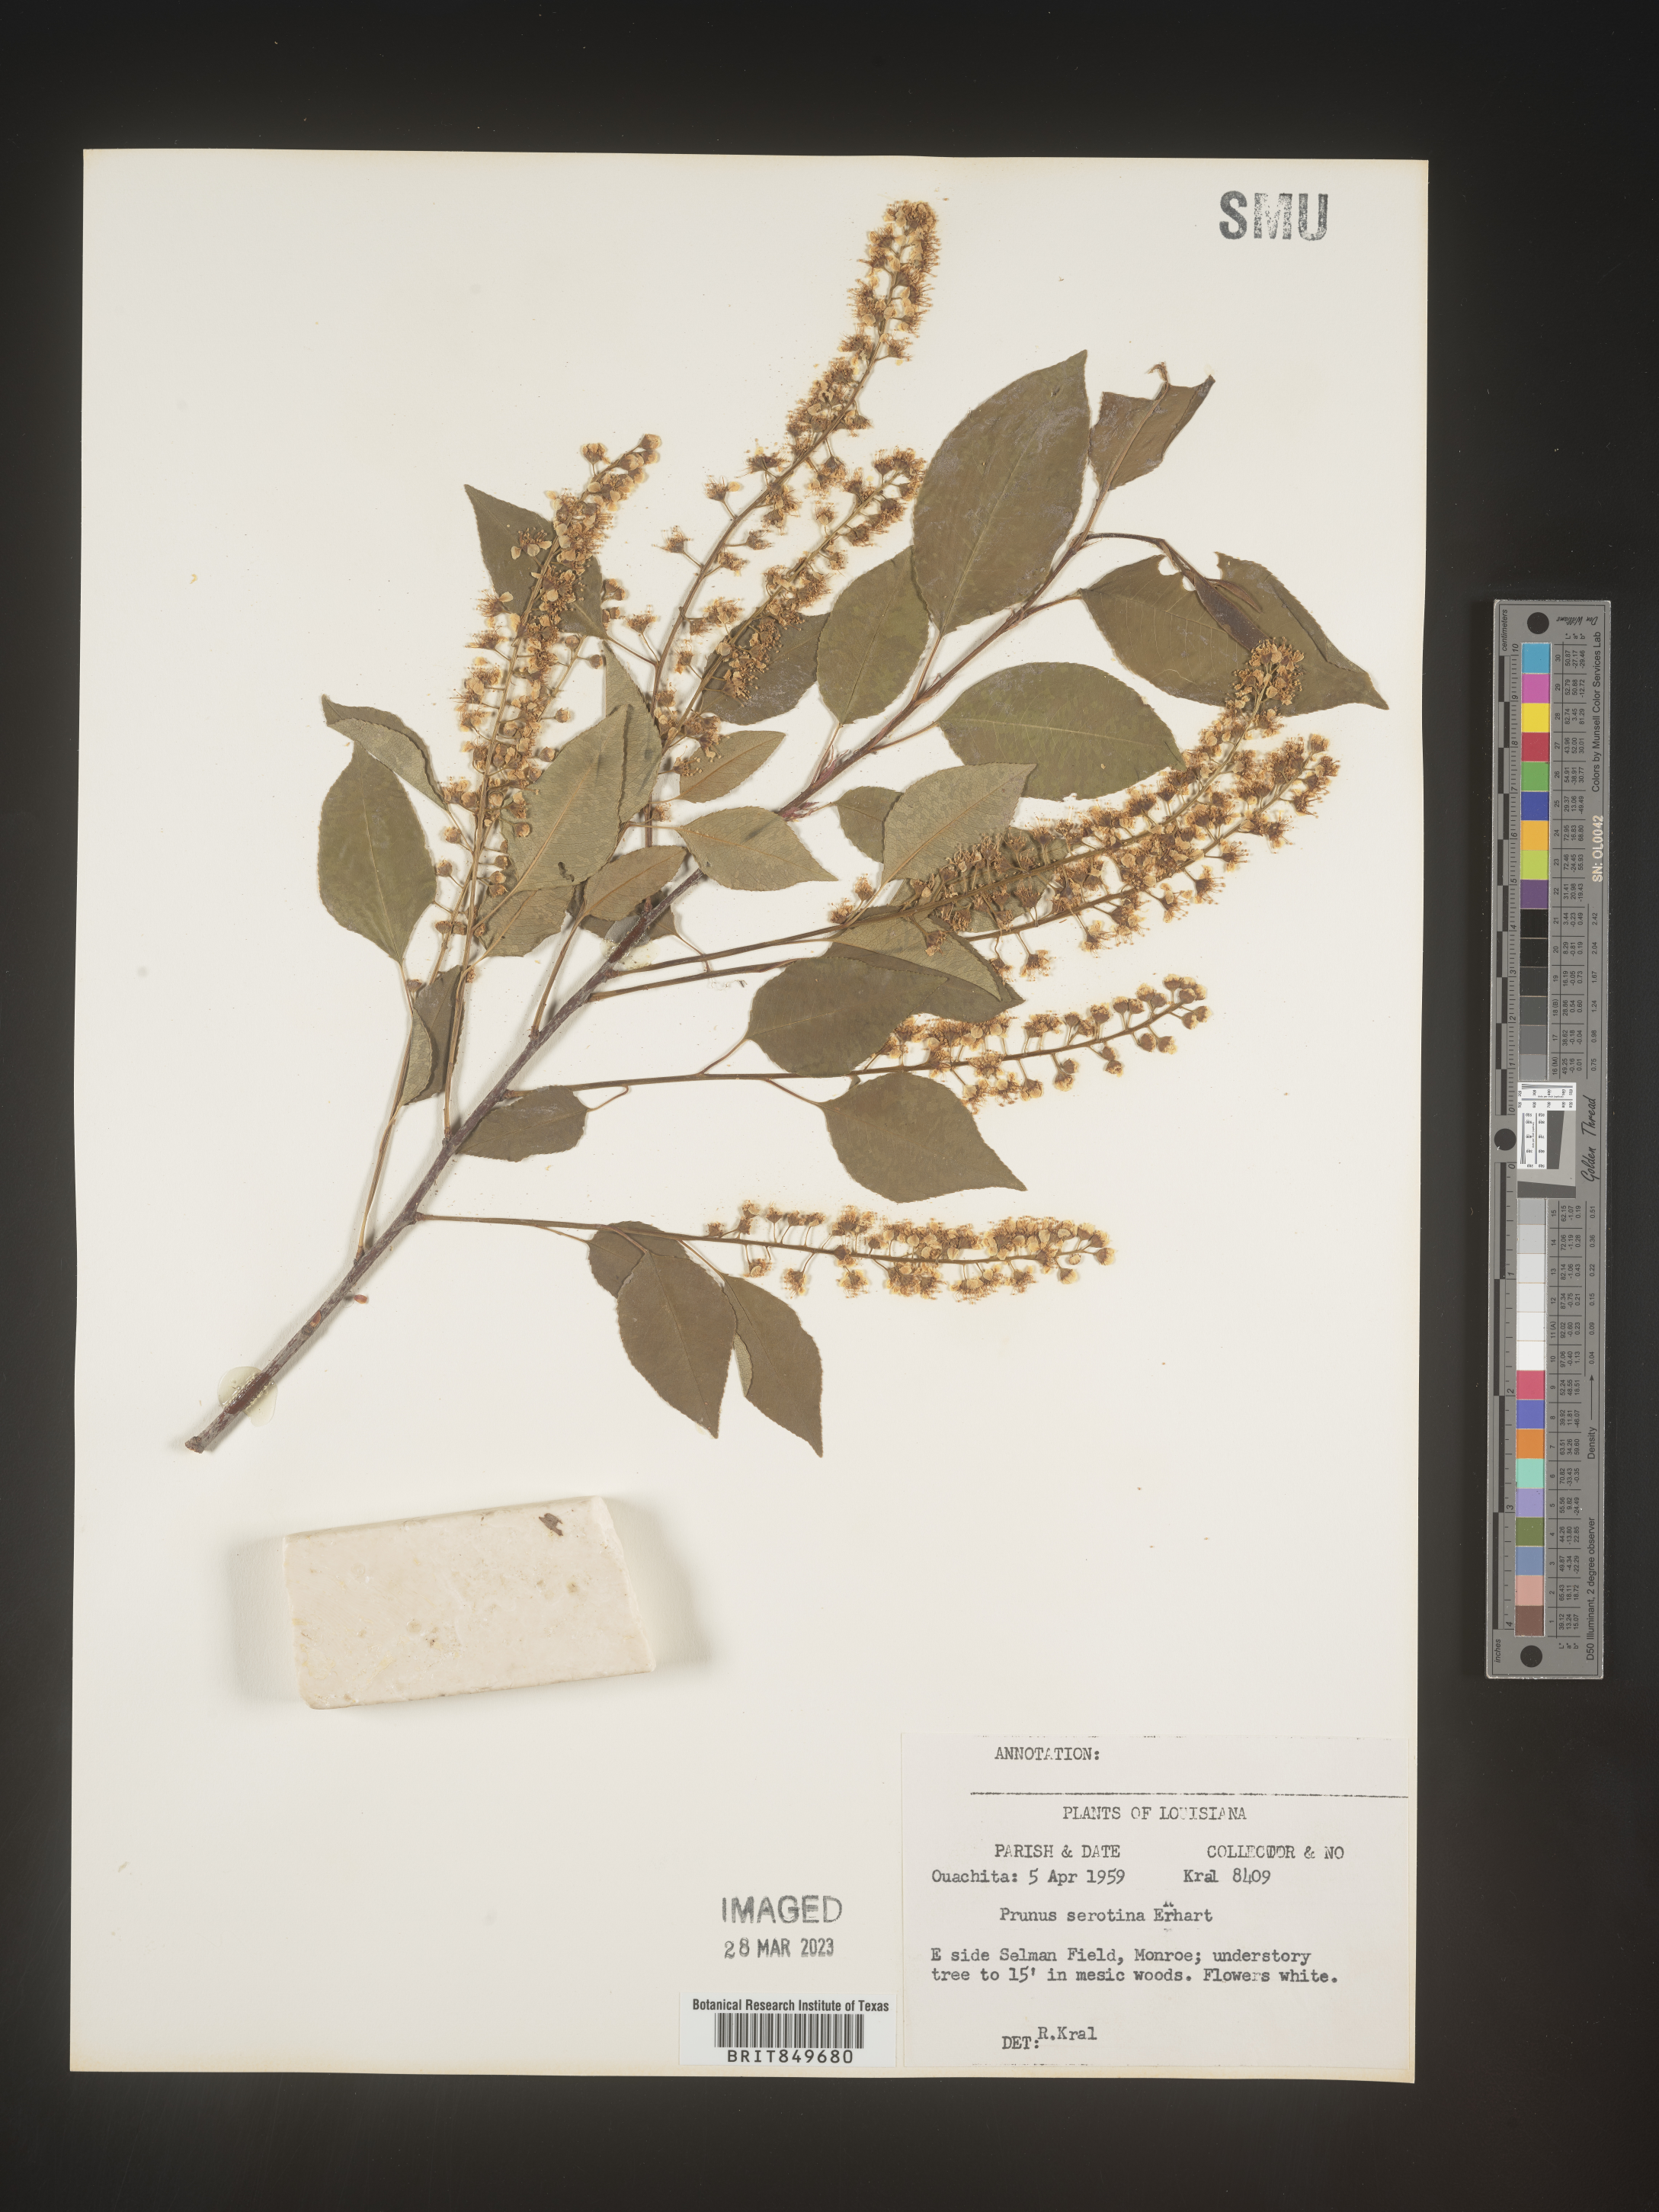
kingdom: Plantae
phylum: Tracheophyta
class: Magnoliopsida
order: Rosales
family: Rosaceae
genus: Prunus
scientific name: Prunus serotina
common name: Black cherry
